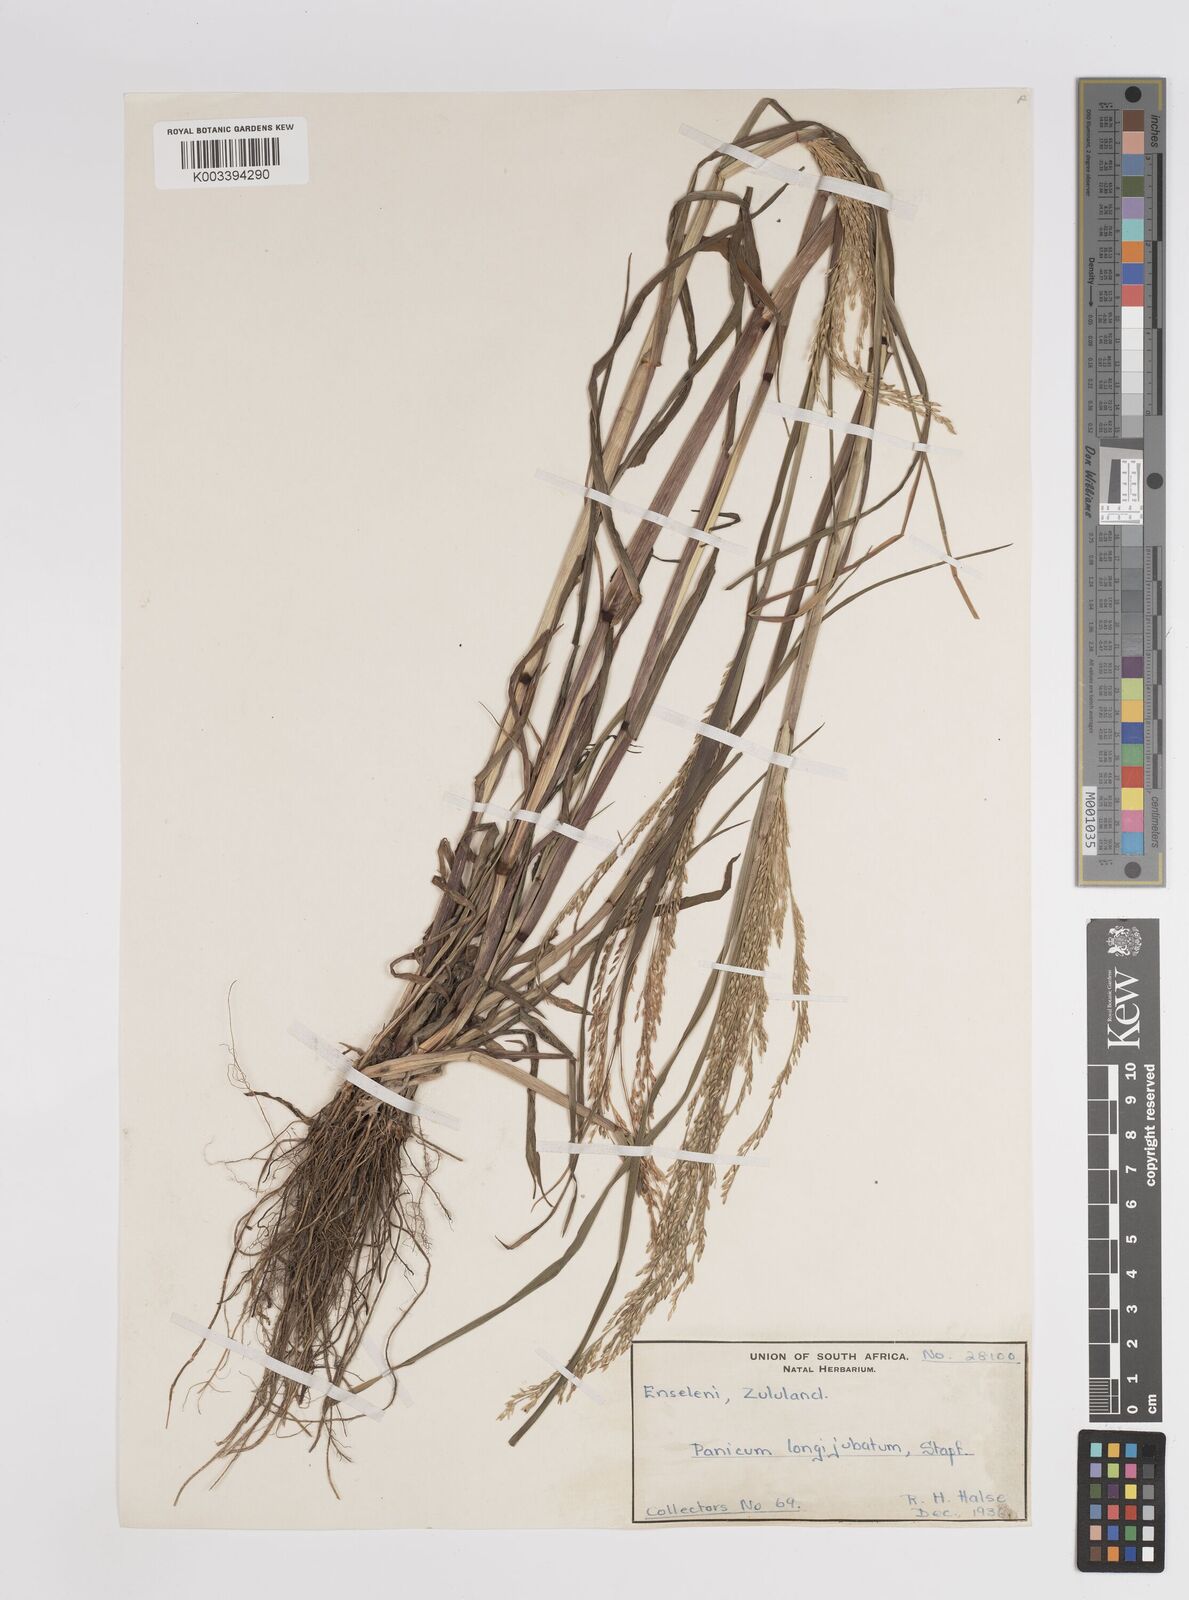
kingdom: Plantae
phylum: Tracheophyta
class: Liliopsida
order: Poales
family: Poaceae
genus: Panicum
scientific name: Panicum subalbidum
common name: Elbow buffalo grass
